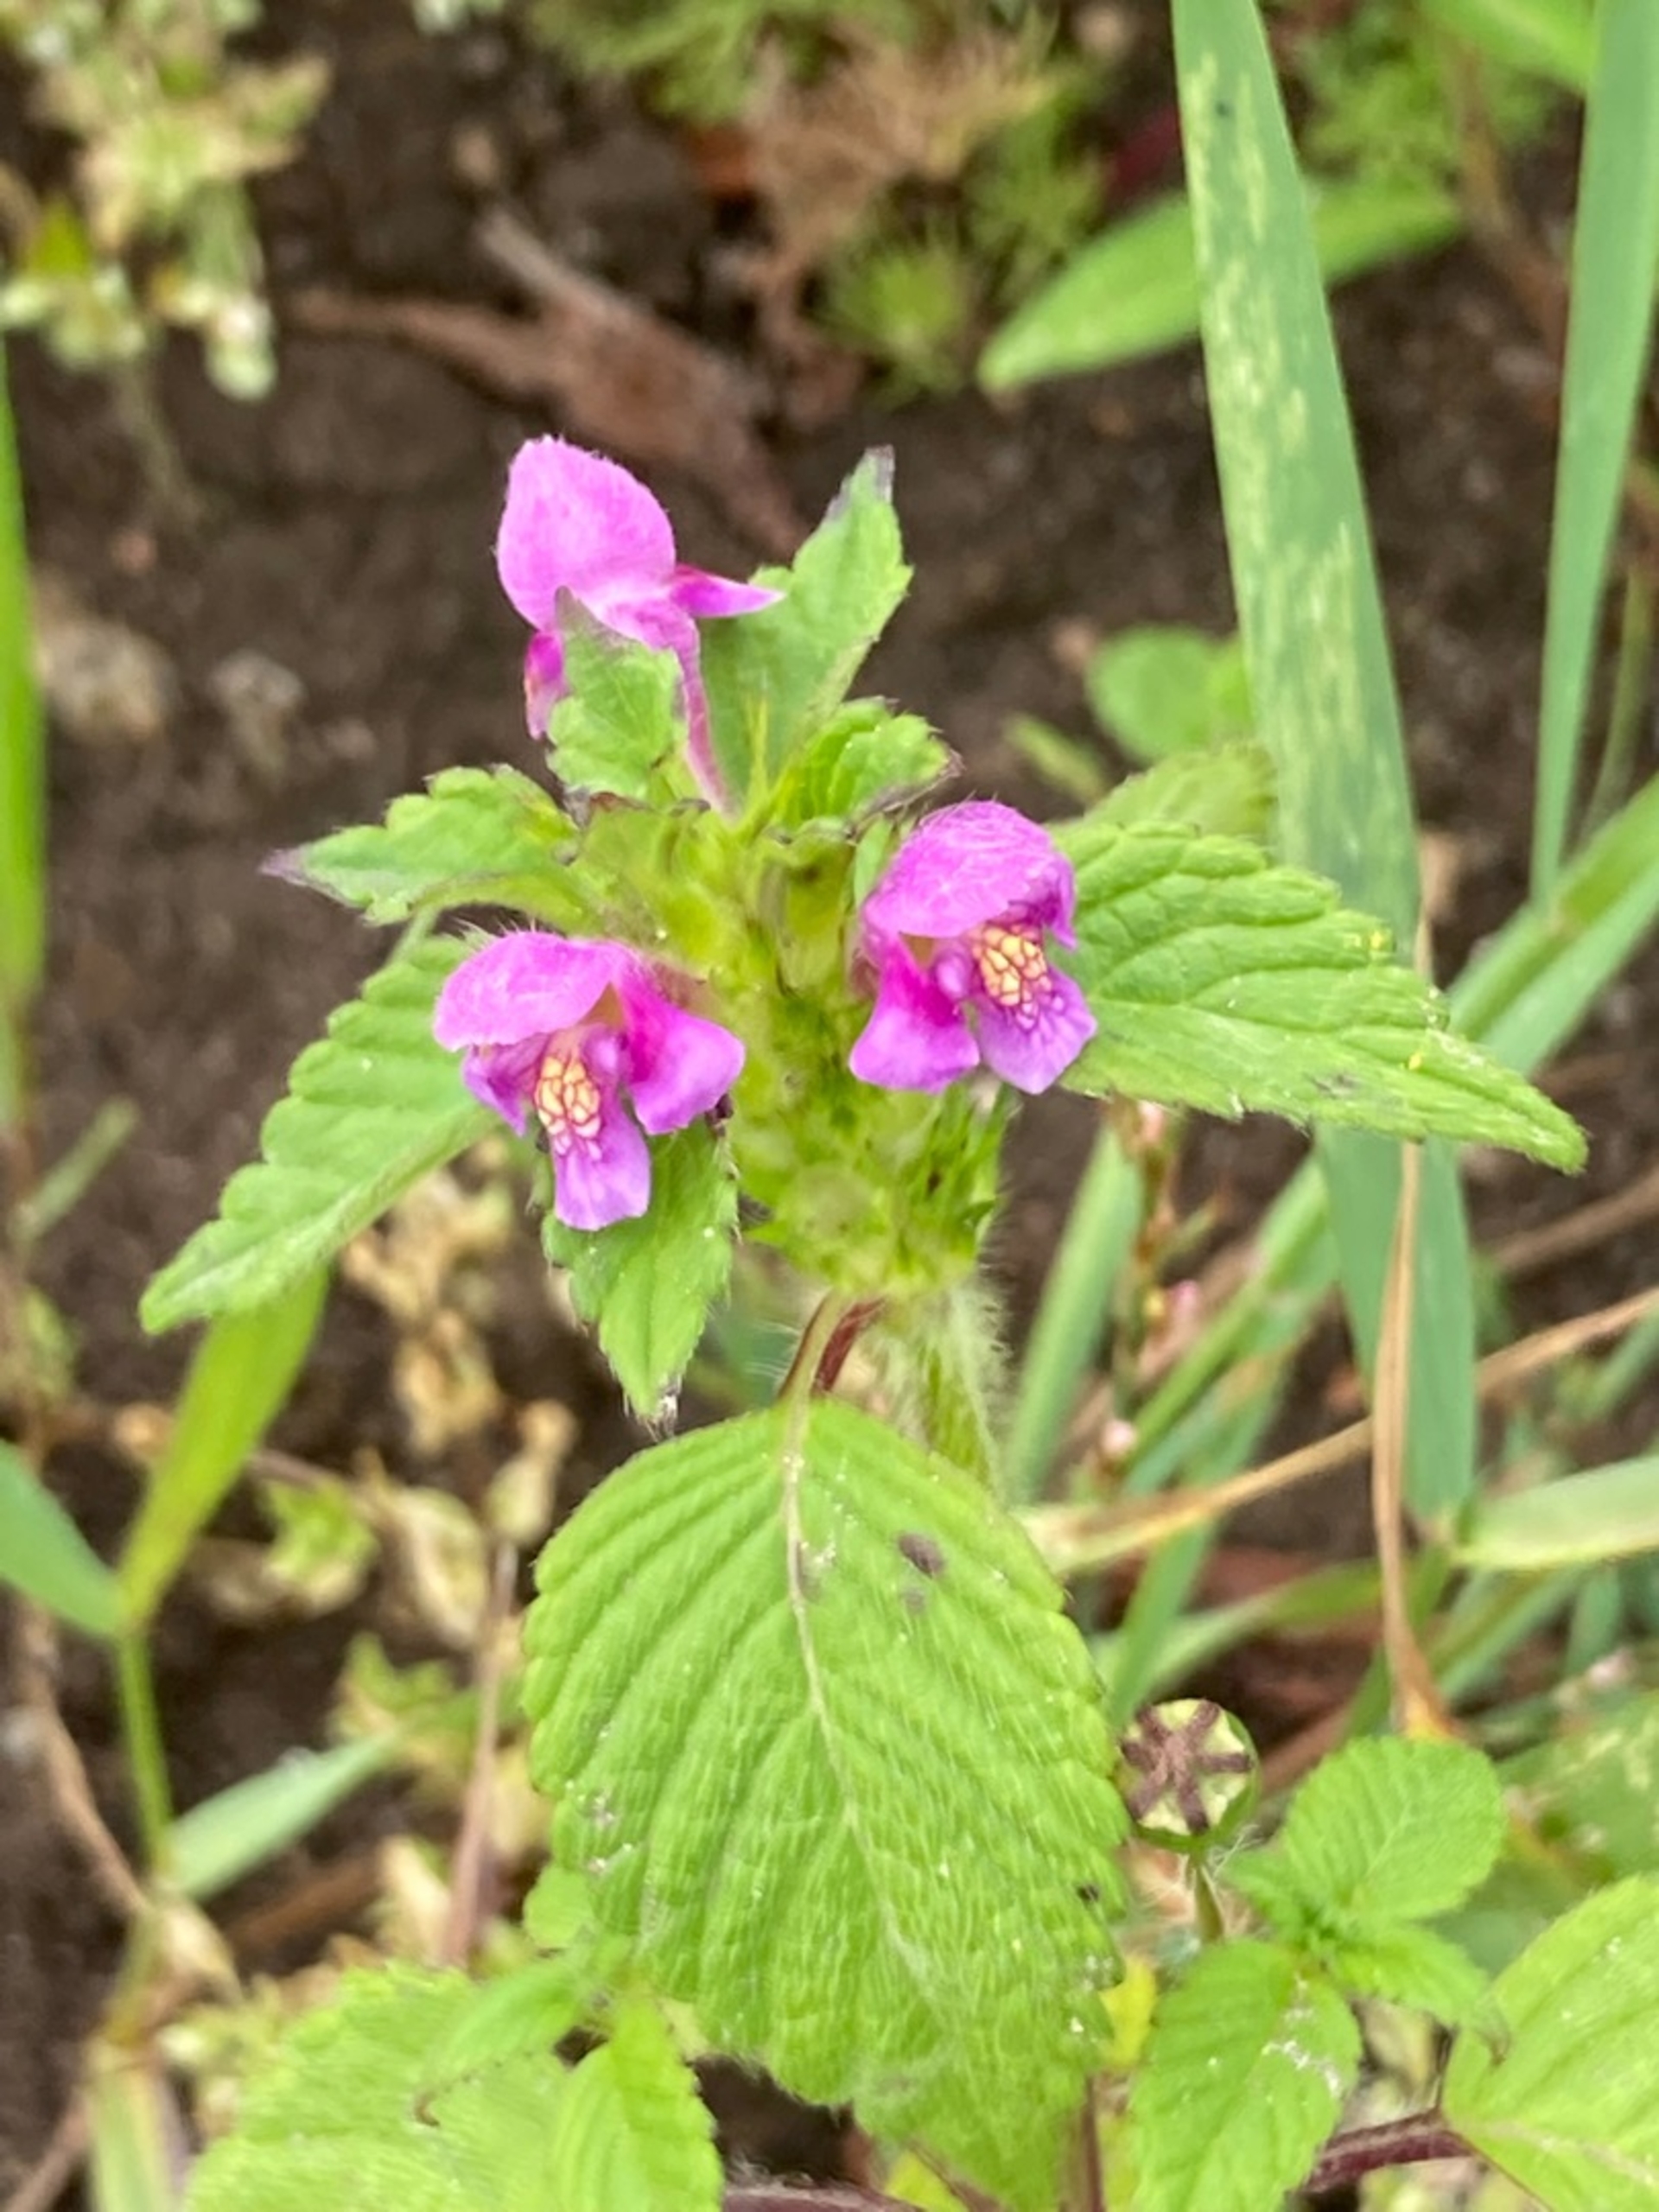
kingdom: Plantae
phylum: Tracheophyta
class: Magnoliopsida
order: Lamiales
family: Lamiaceae
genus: Galeopsis
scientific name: Galeopsis ladanum
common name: Sand-hanekro
